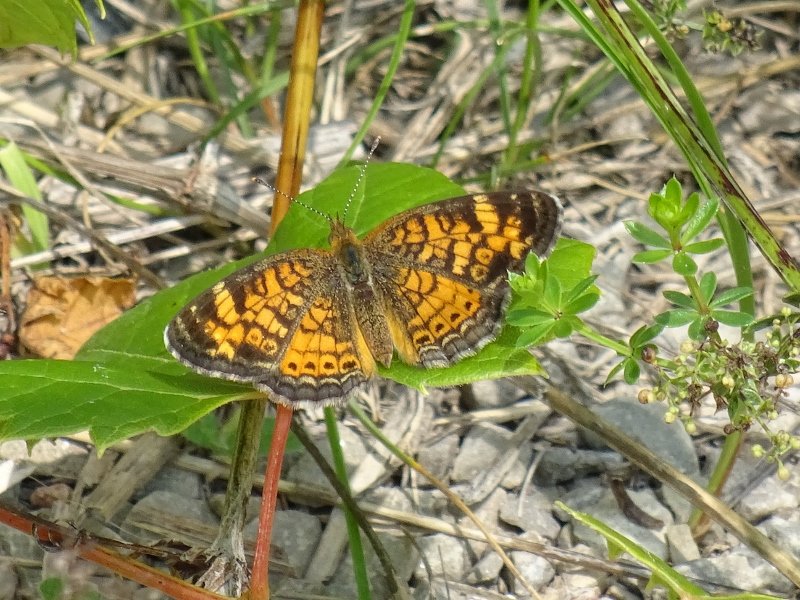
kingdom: Animalia
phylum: Arthropoda
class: Insecta
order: Lepidoptera
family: Nymphalidae
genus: Phyciodes
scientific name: Phyciodes tharos
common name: Northern Crescent
